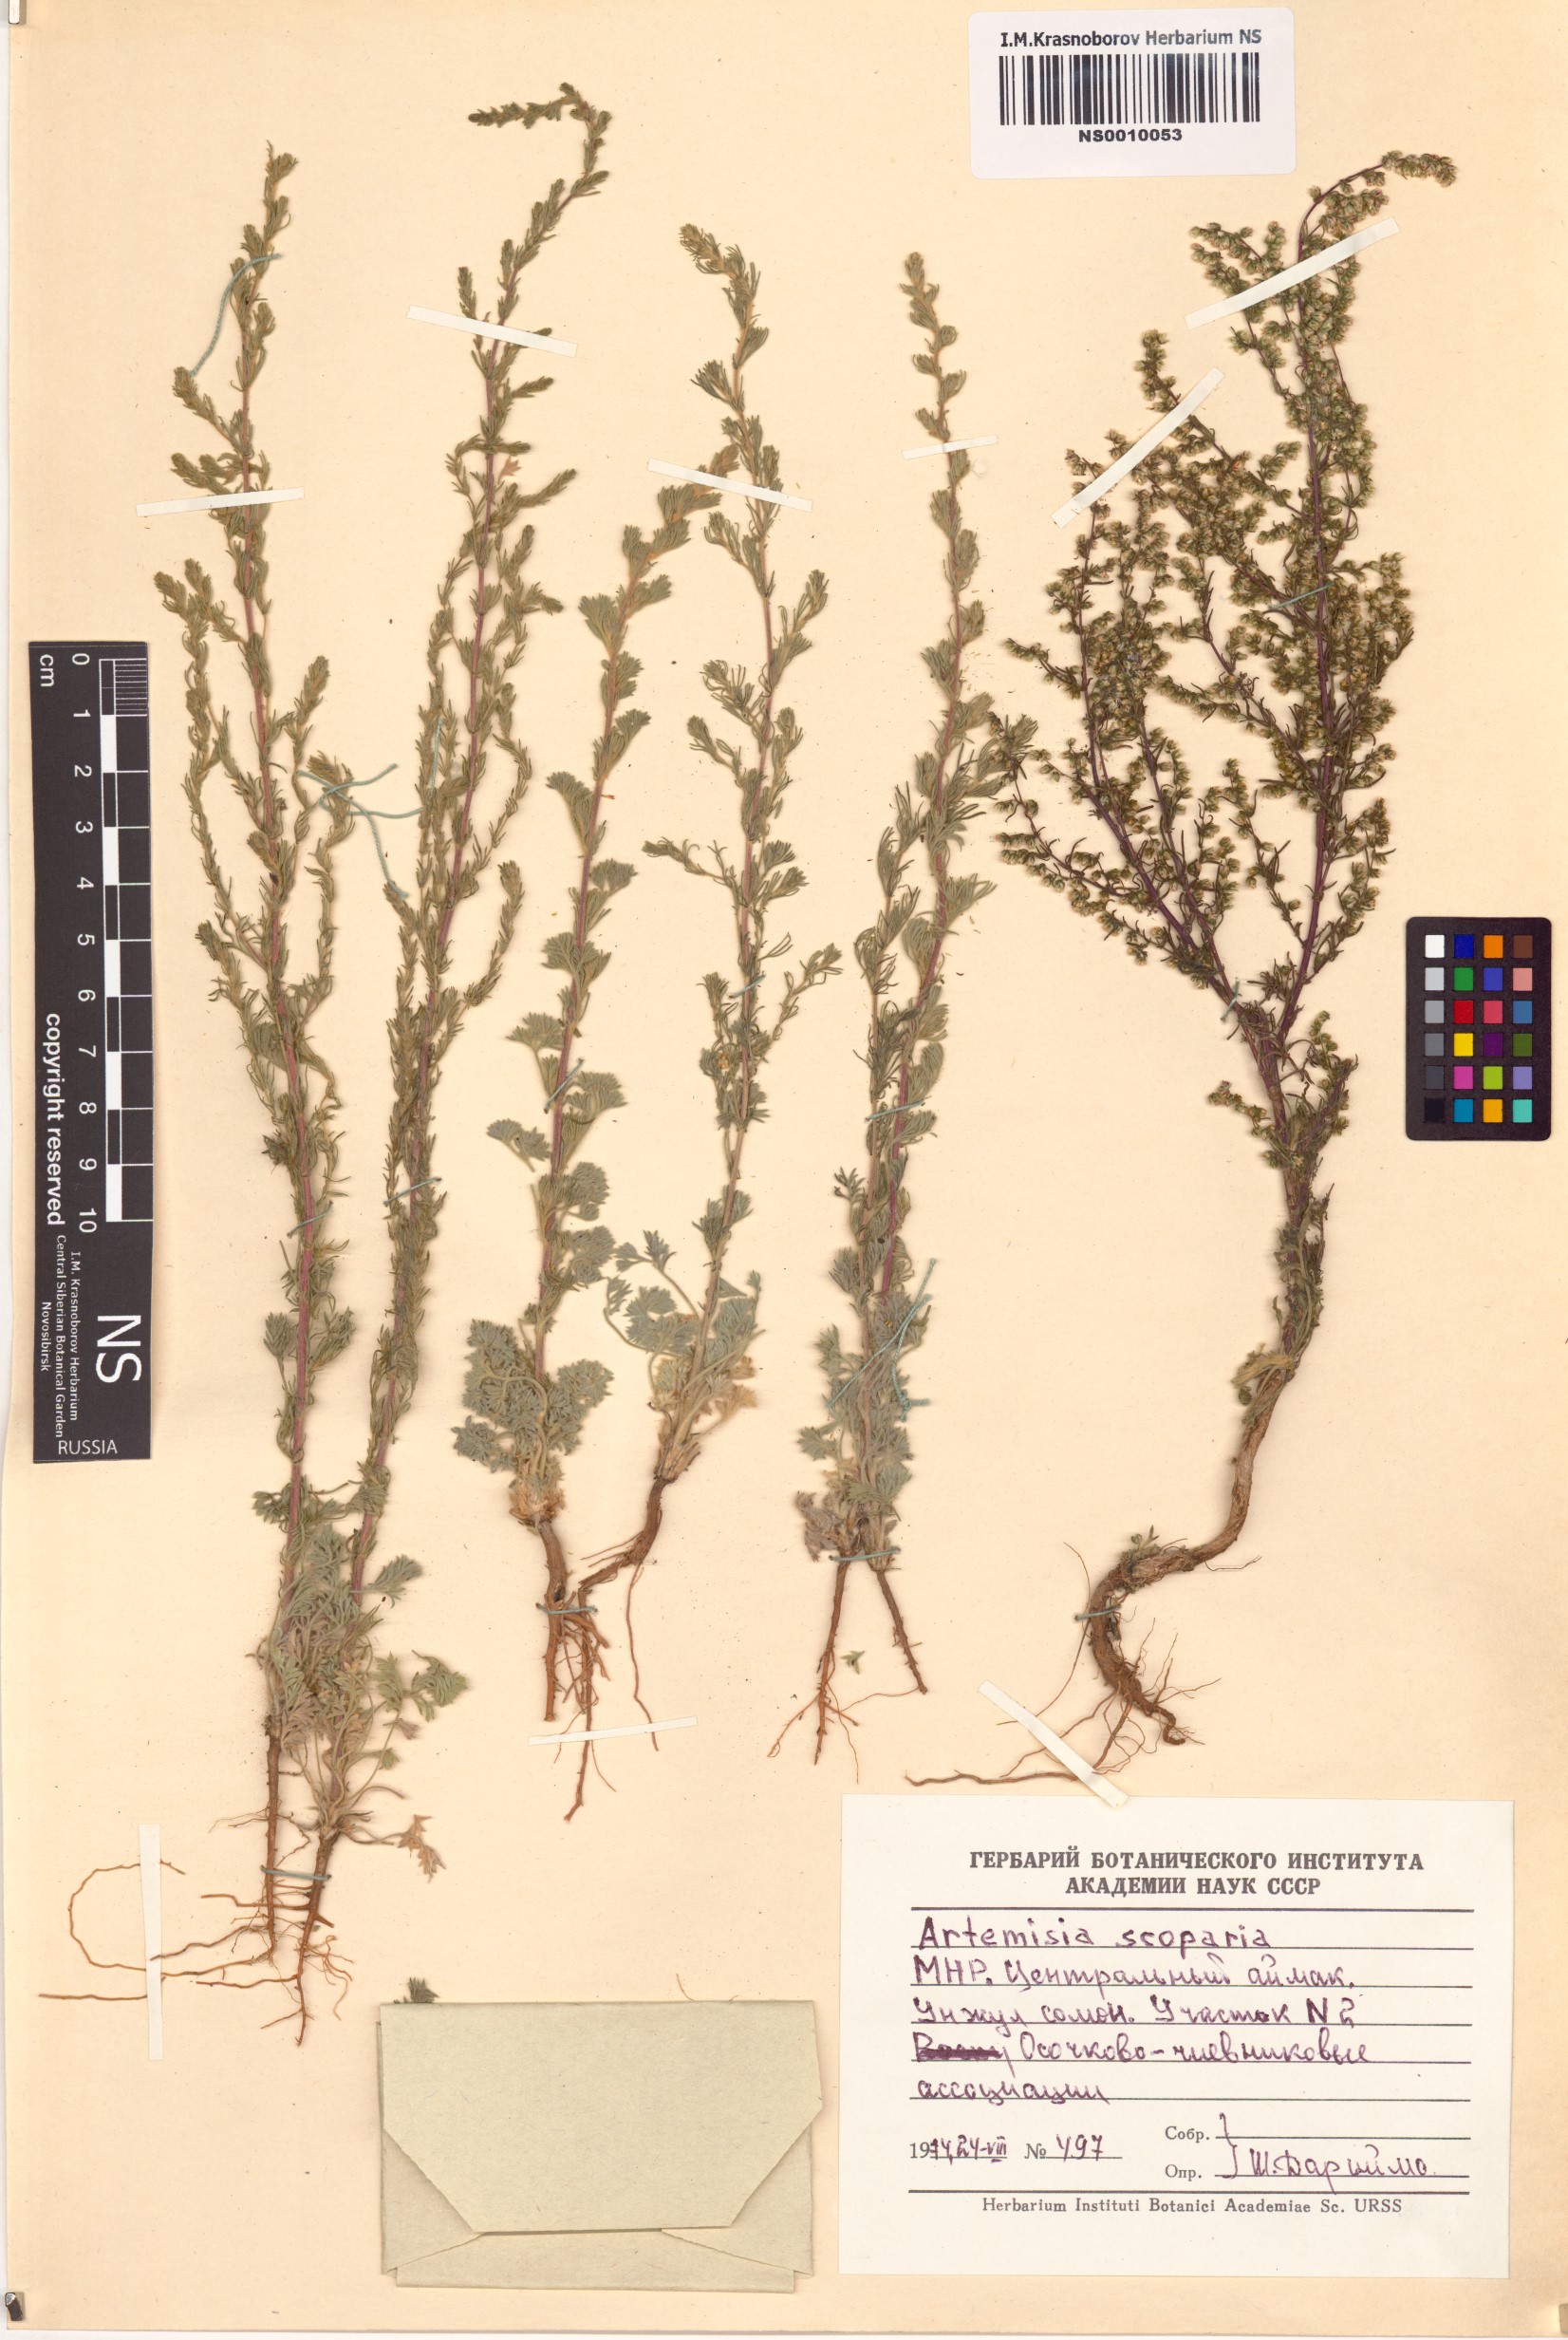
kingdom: Plantae
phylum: Tracheophyta
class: Magnoliopsida
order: Asterales
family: Asteraceae
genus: Artemisia
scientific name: Artemisia scoparia
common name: Redstem wormwood
